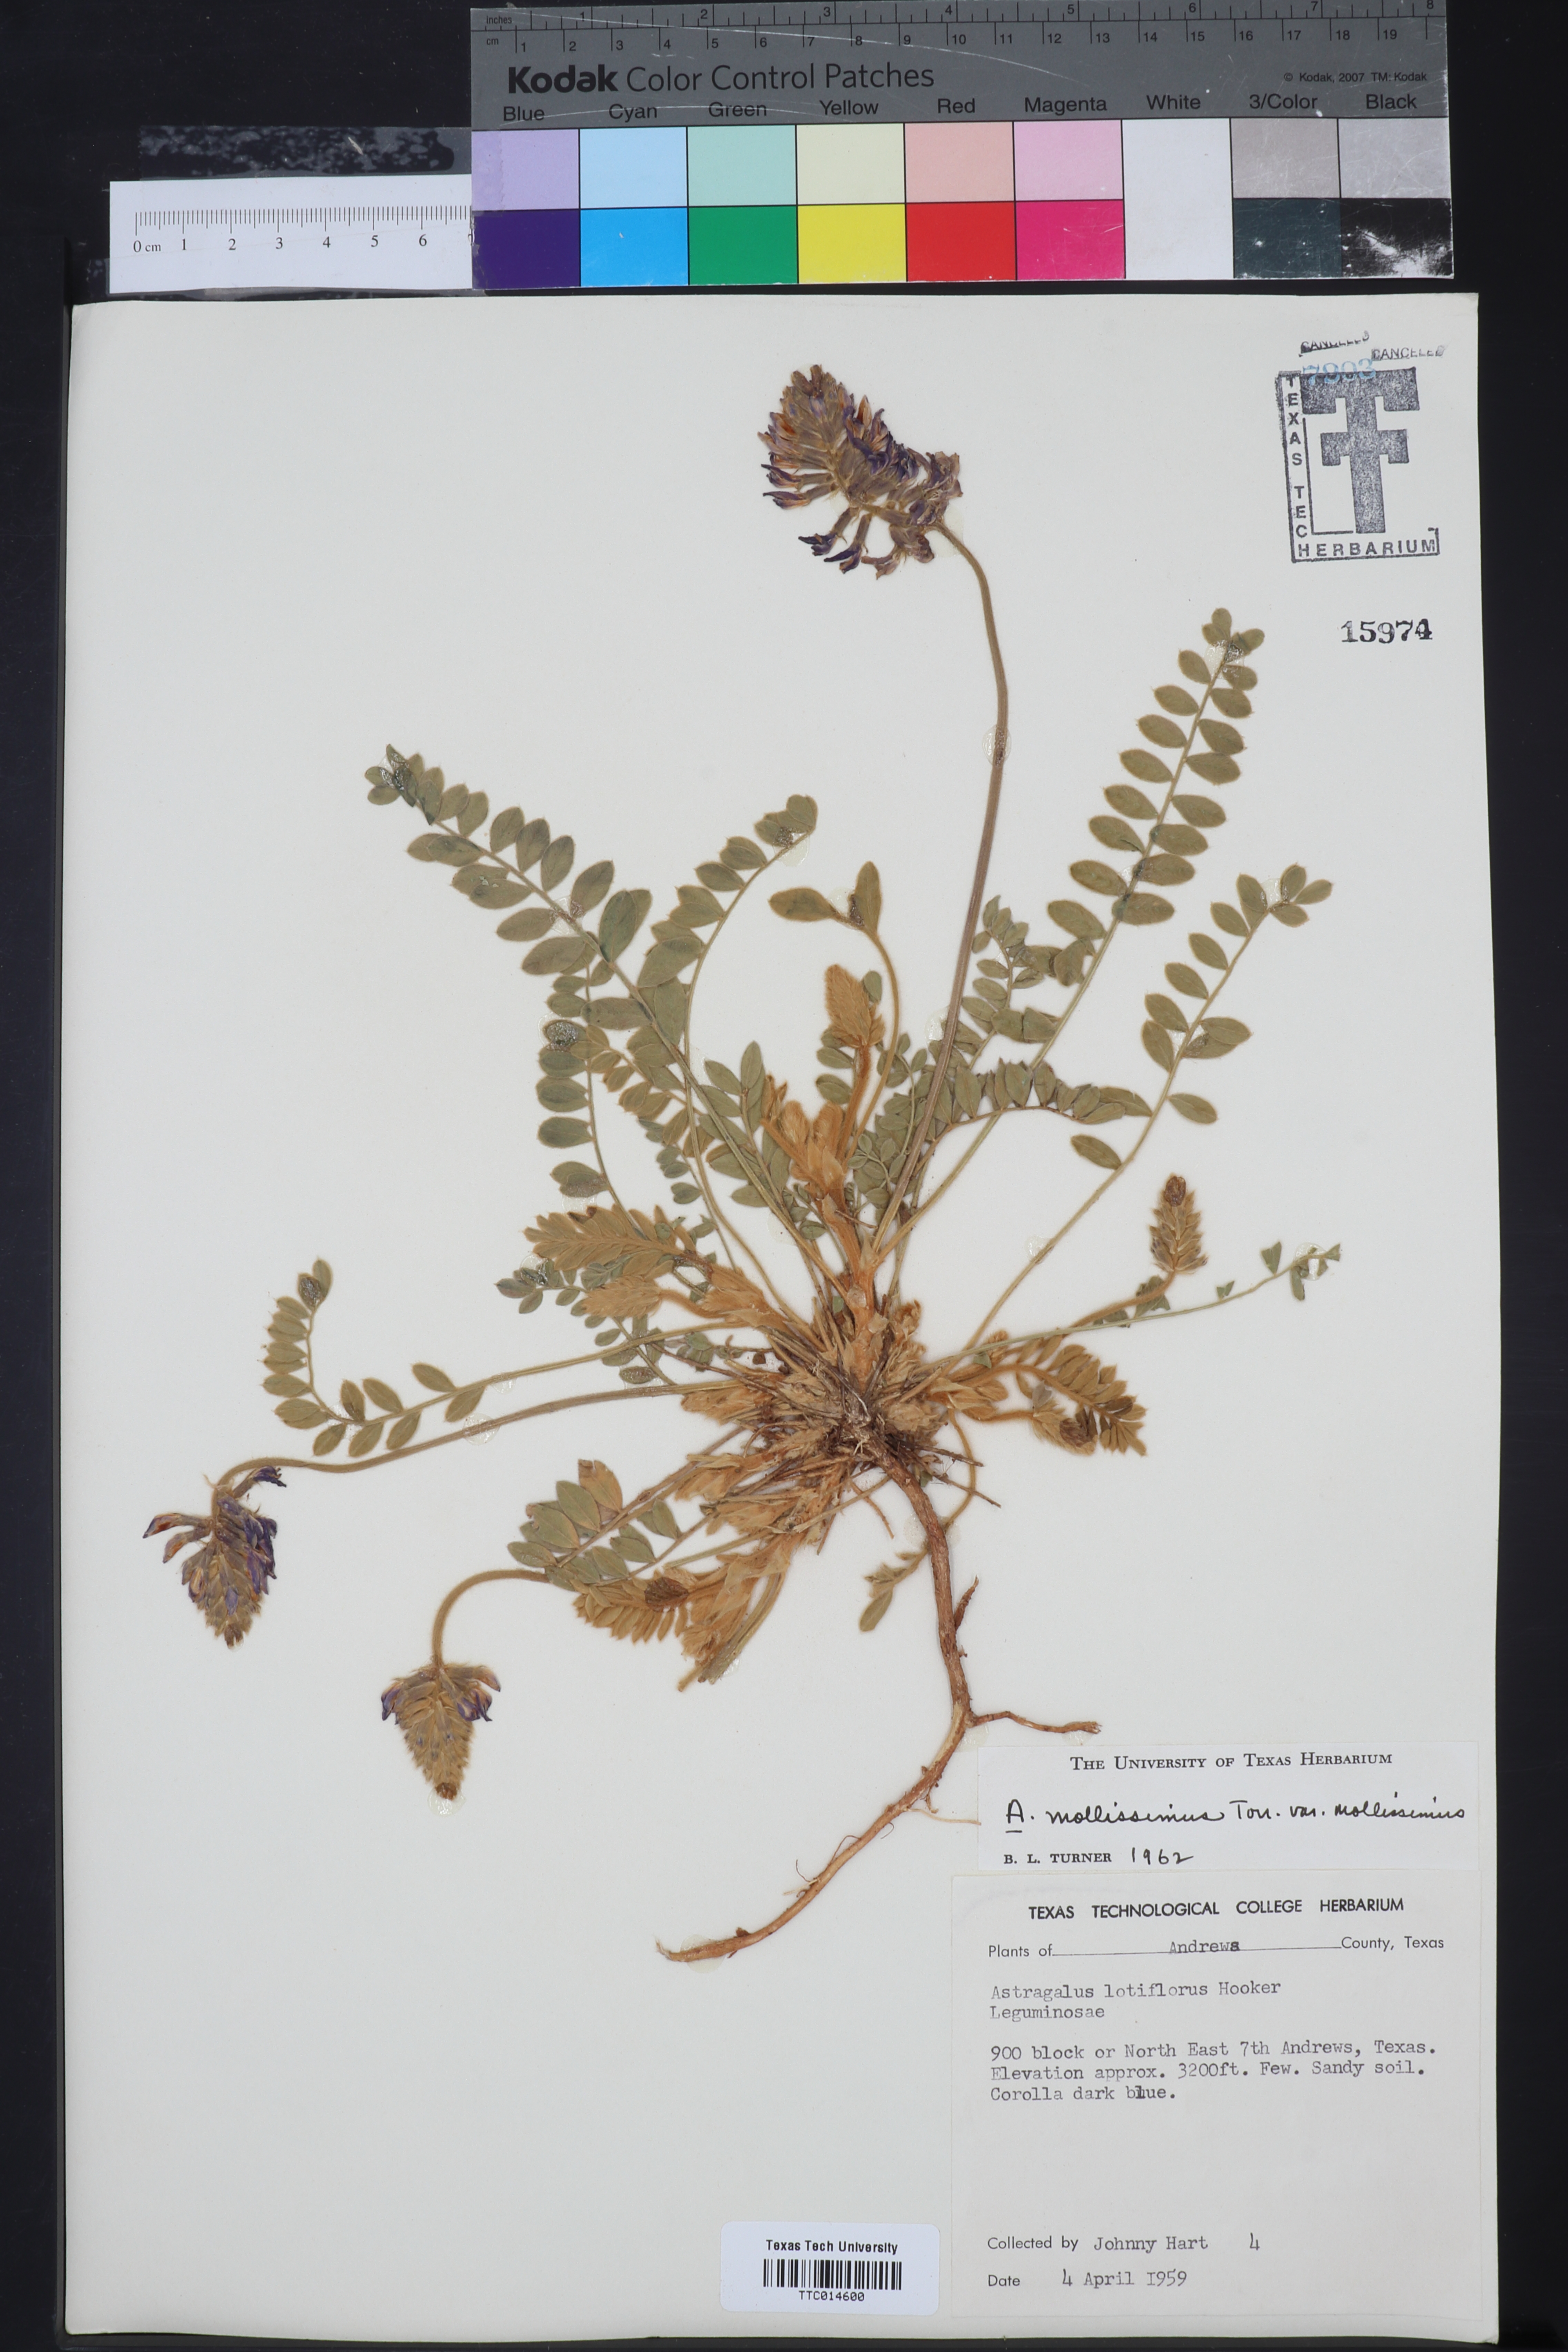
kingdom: Plantae
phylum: Tracheophyta
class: Magnoliopsida
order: Fabales
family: Fabaceae
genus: Astragalus
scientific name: Astragalus missouriensis
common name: Missouri milk-vetch
